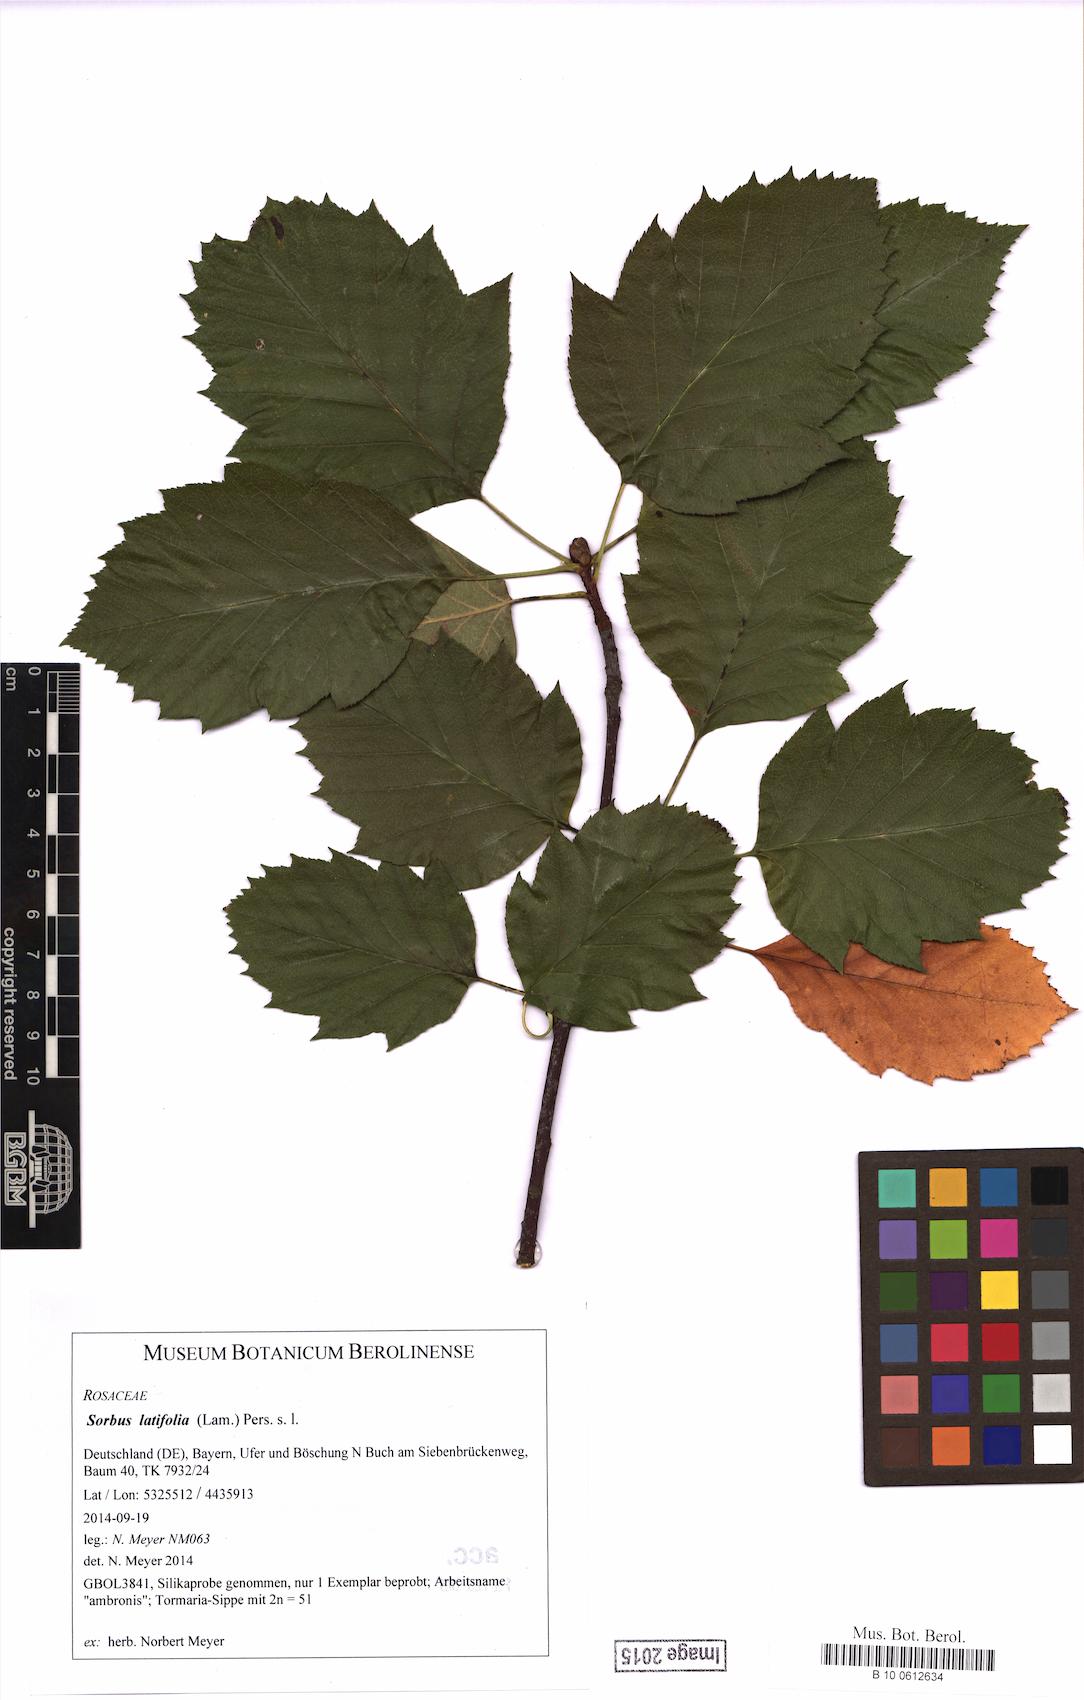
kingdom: Plantae
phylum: Tracheophyta
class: Magnoliopsida
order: Rosales
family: Rosaceae
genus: Karpatiosorbus
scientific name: Karpatiosorbus latifolia
